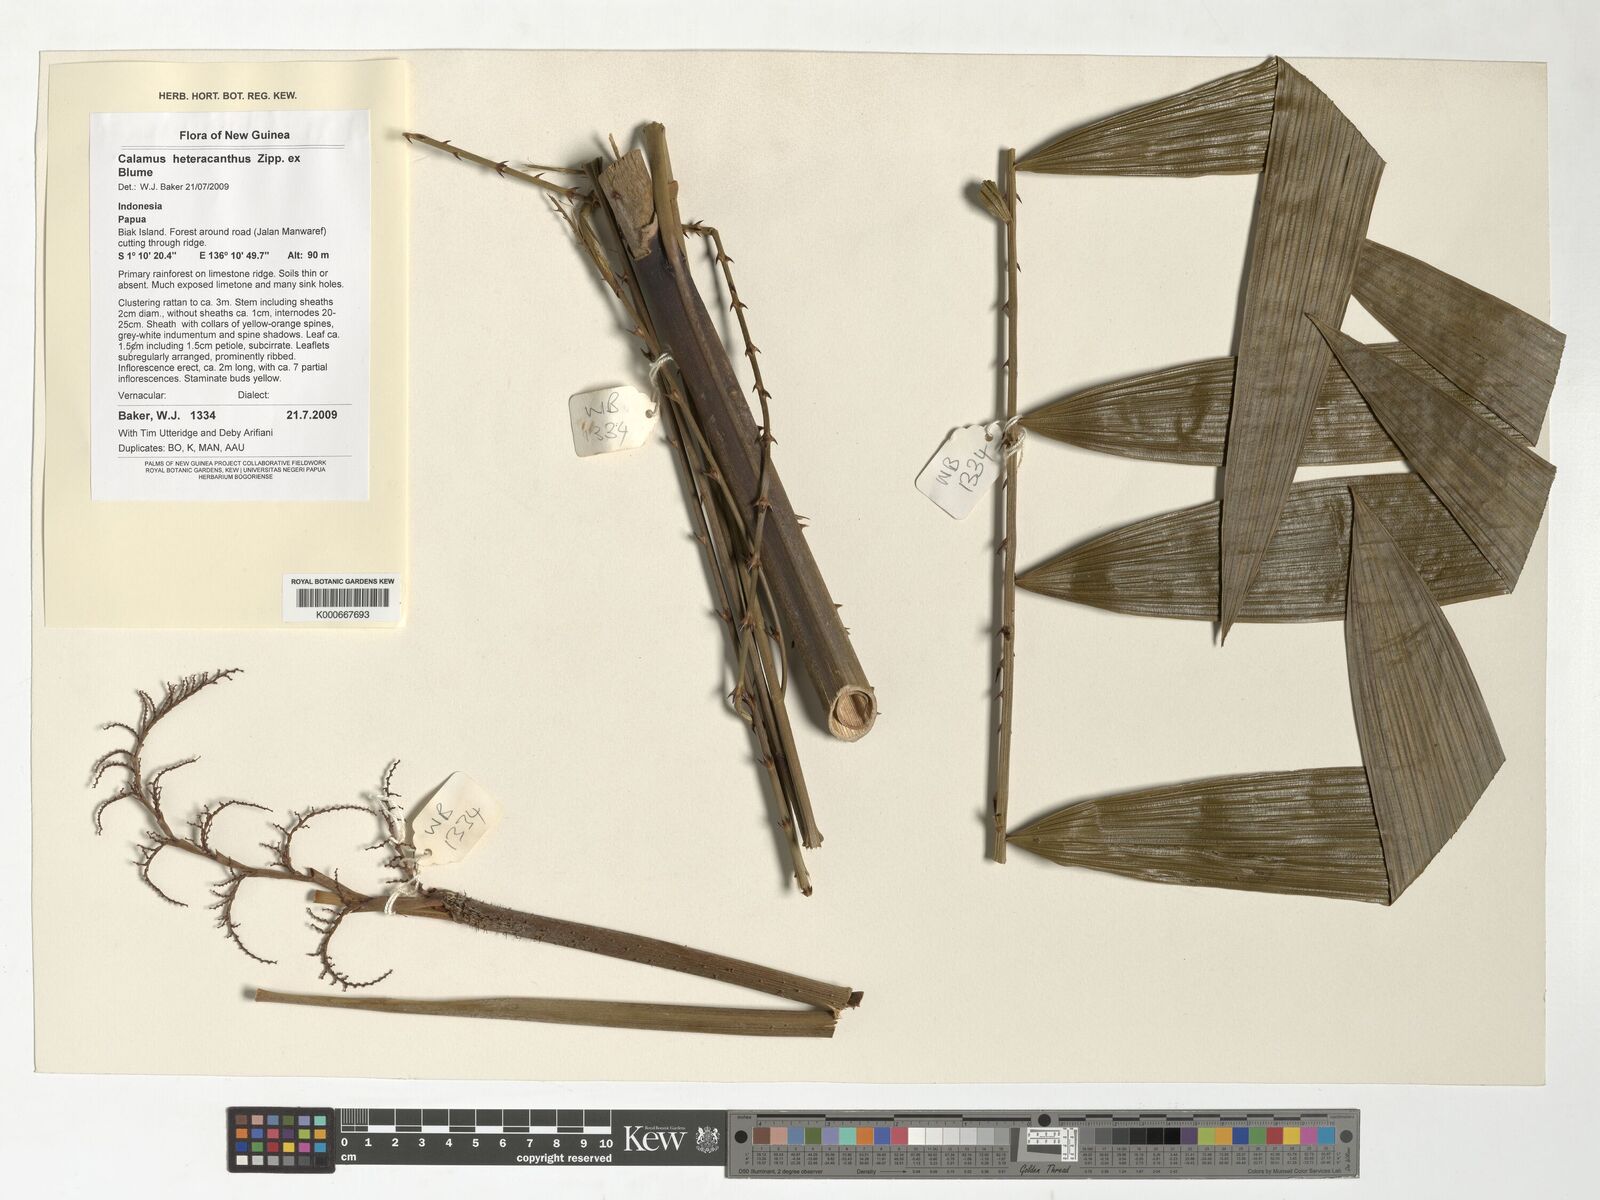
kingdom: Plantae
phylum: Tracheophyta
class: Liliopsida
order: Arecales
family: Arecaceae
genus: Calamus
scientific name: Calamus heteracanthus
